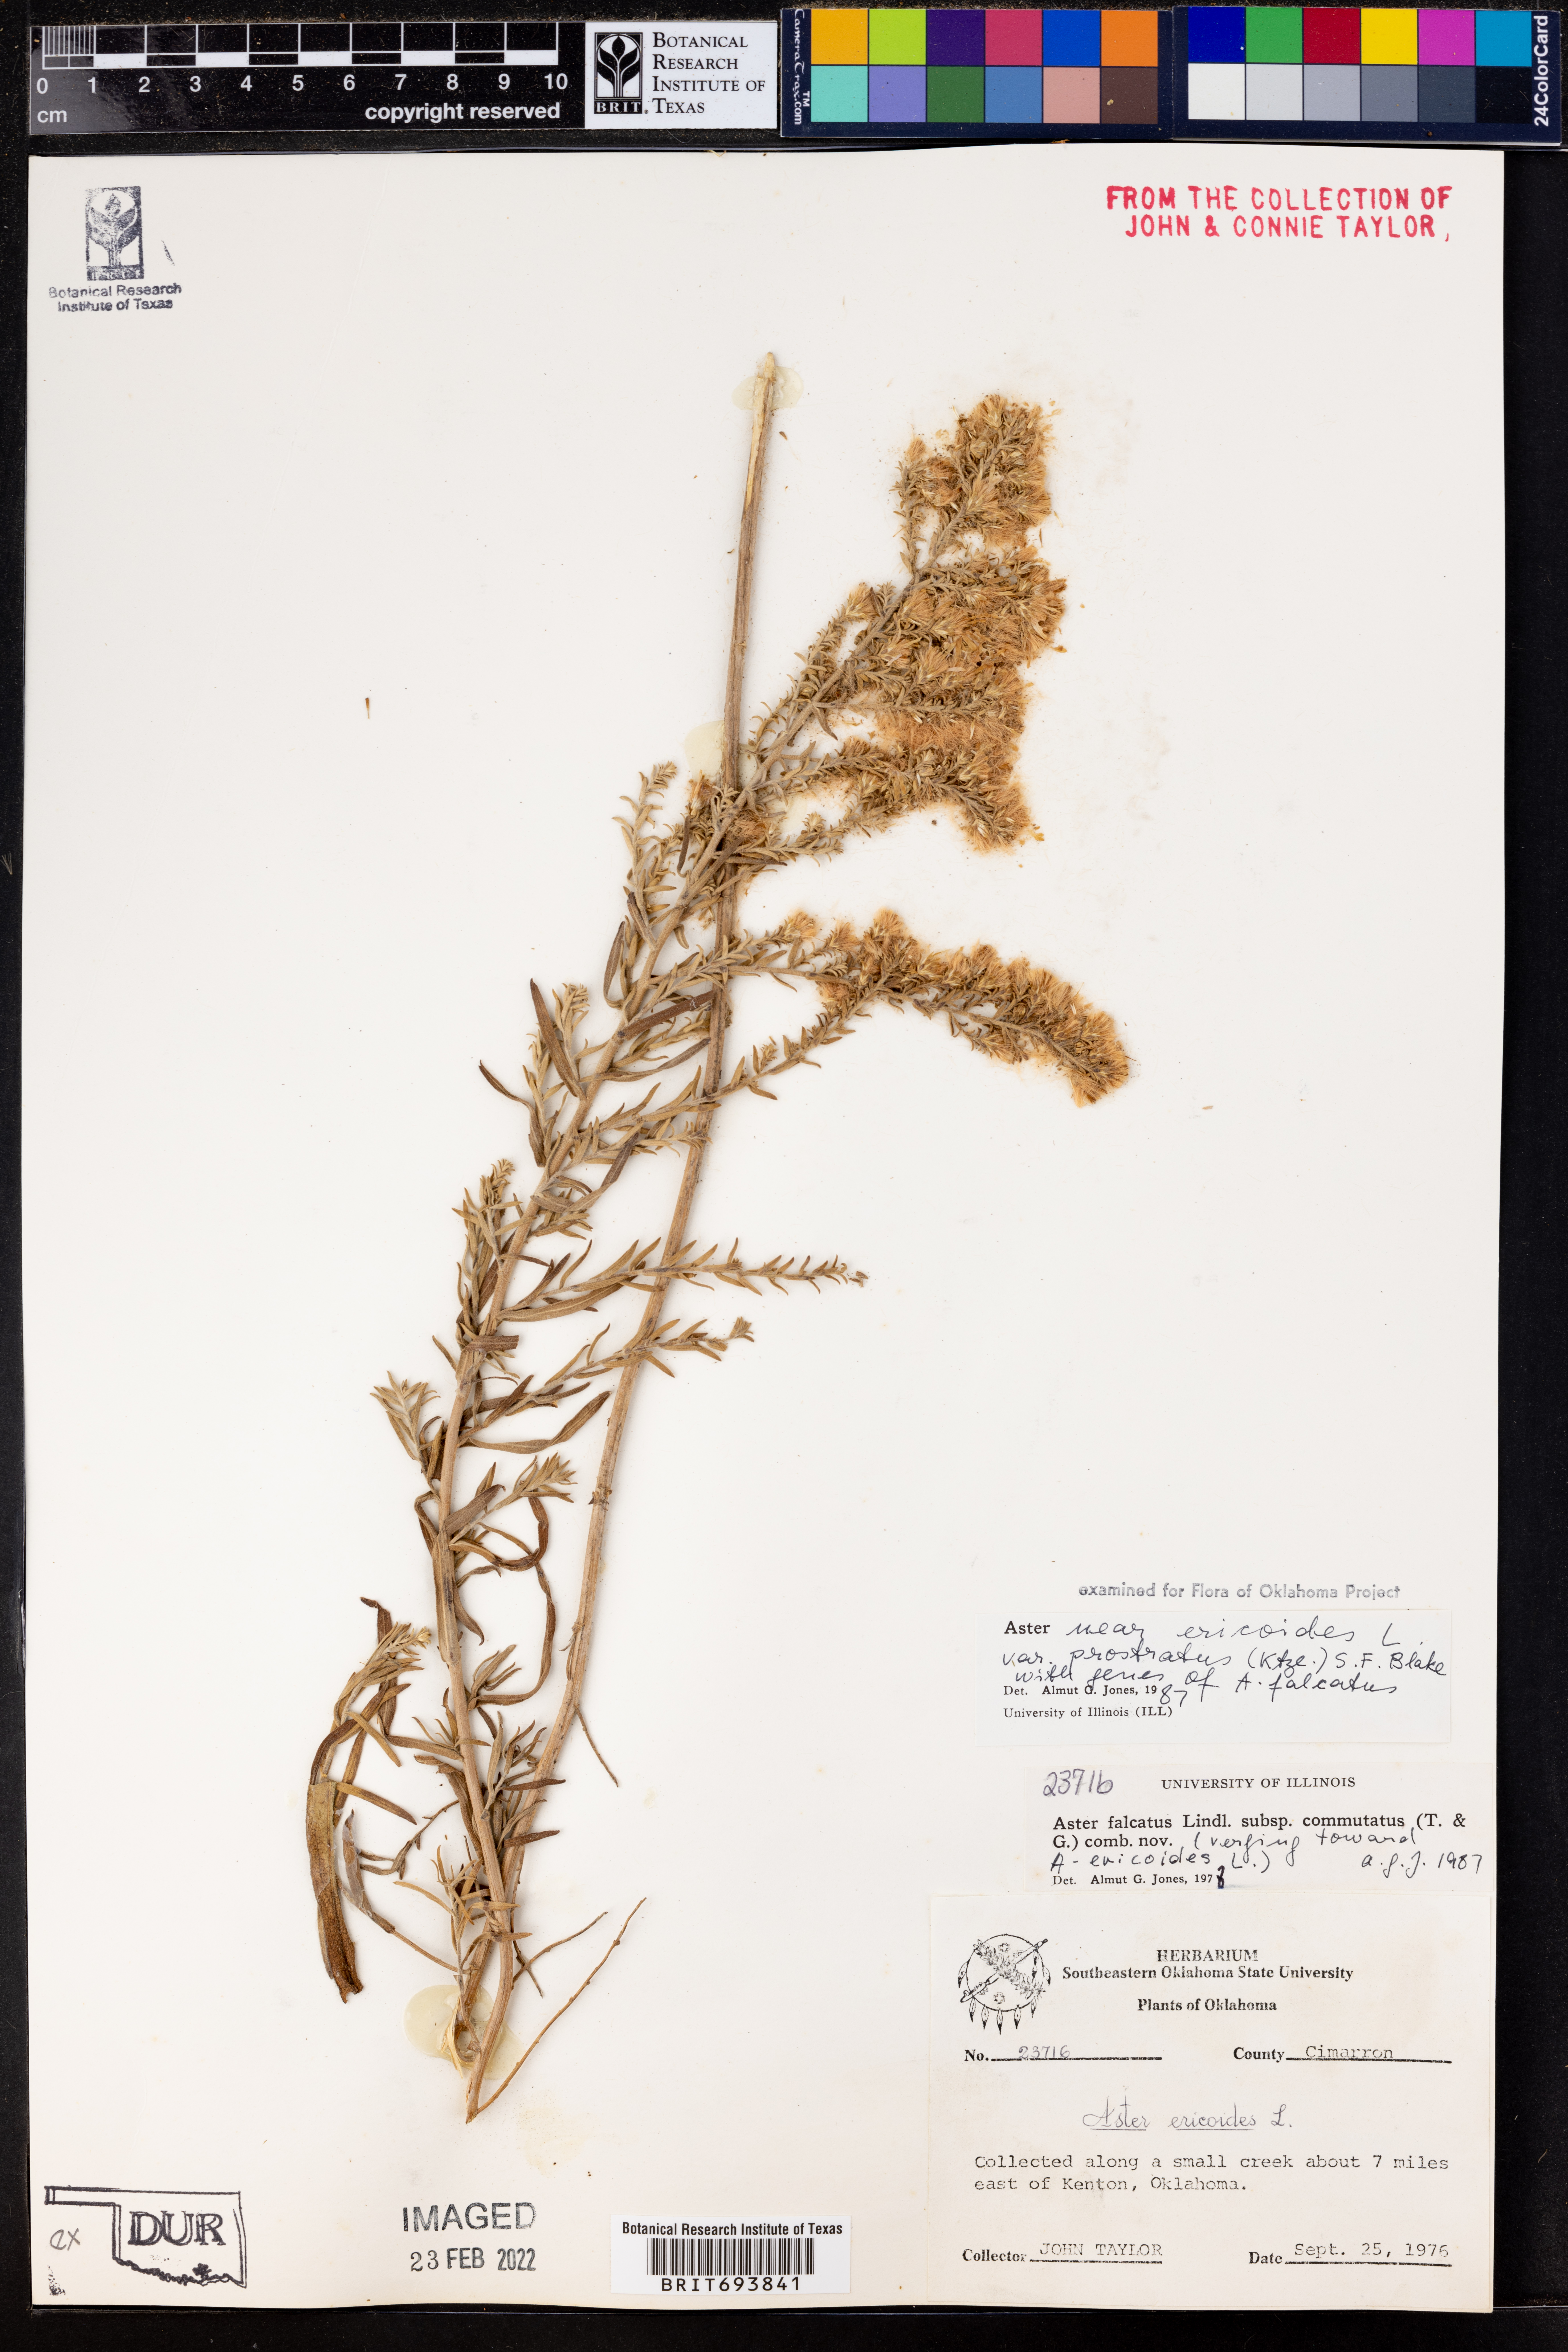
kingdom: Plantae
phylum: Tracheophyta
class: Magnoliopsida
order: Asterales
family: Asteraceae
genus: Symphyotrichum
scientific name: Symphyotrichum ericoides
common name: Heath aster
